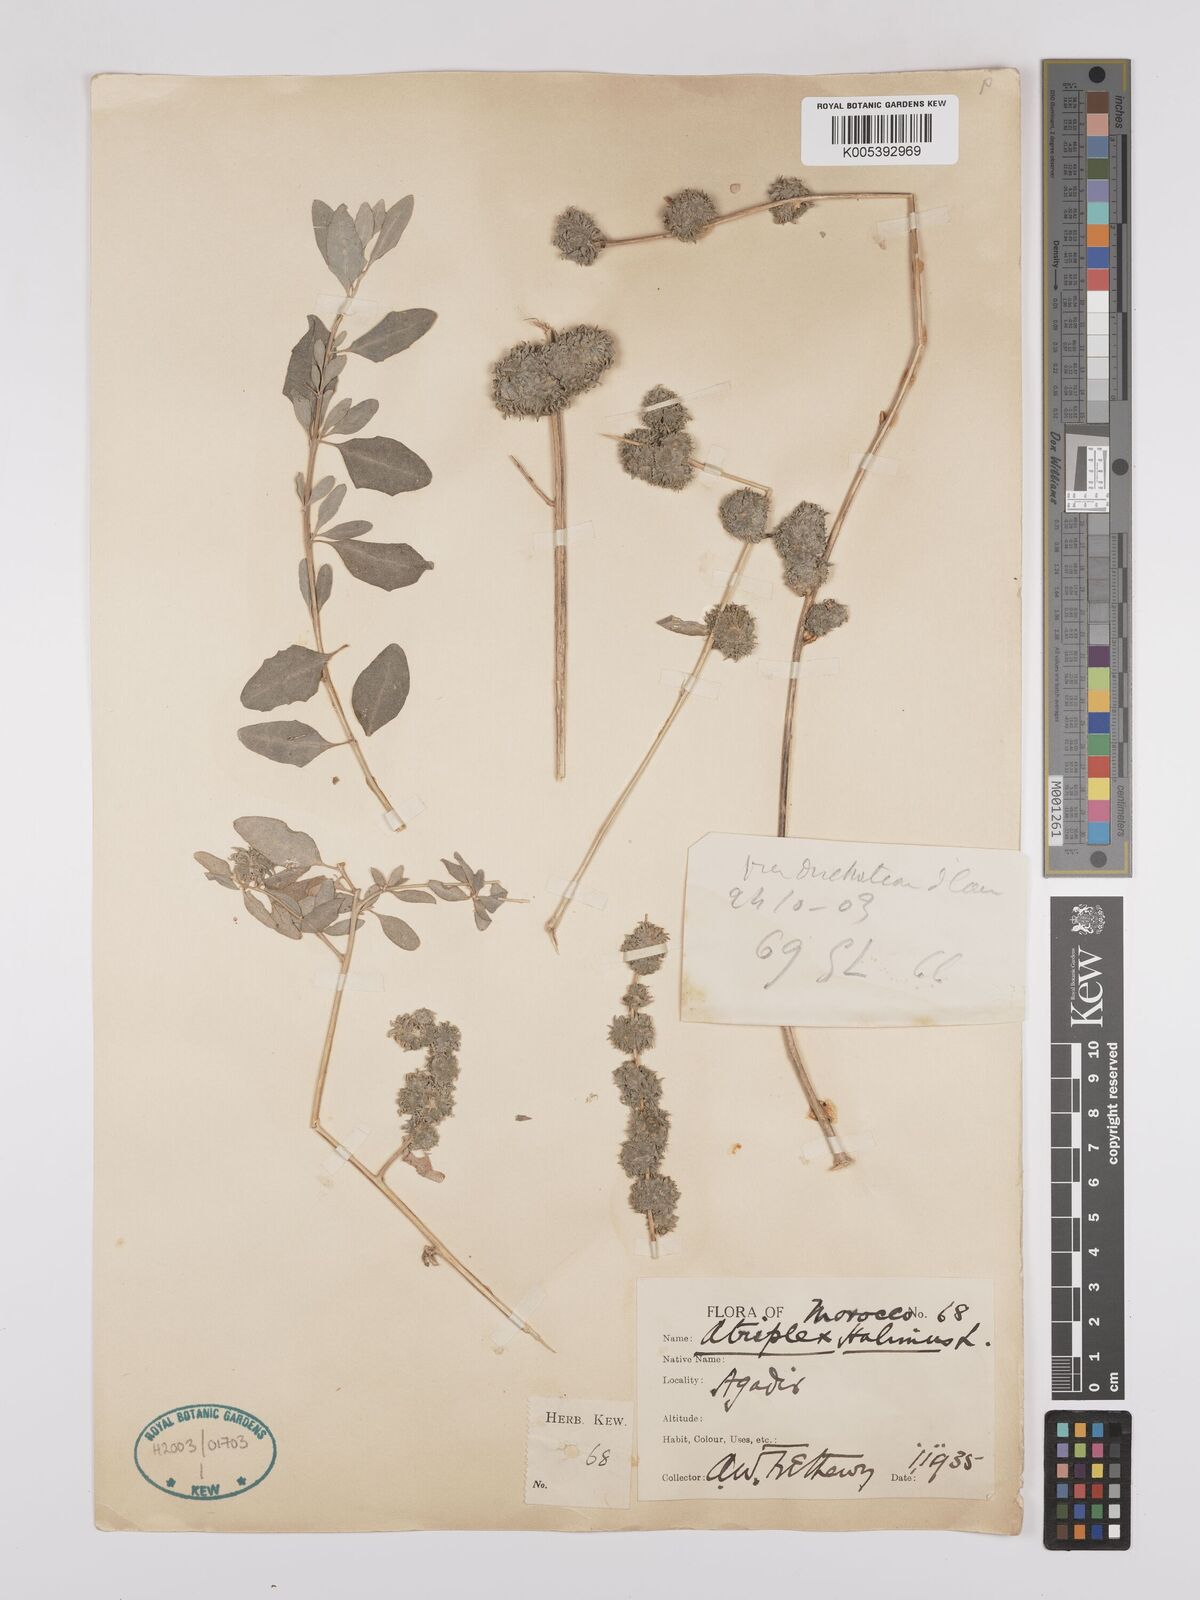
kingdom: Plantae
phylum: Tracheophyta
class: Magnoliopsida
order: Caryophyllales
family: Amaranthaceae
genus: Atriplex
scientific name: Atriplex
